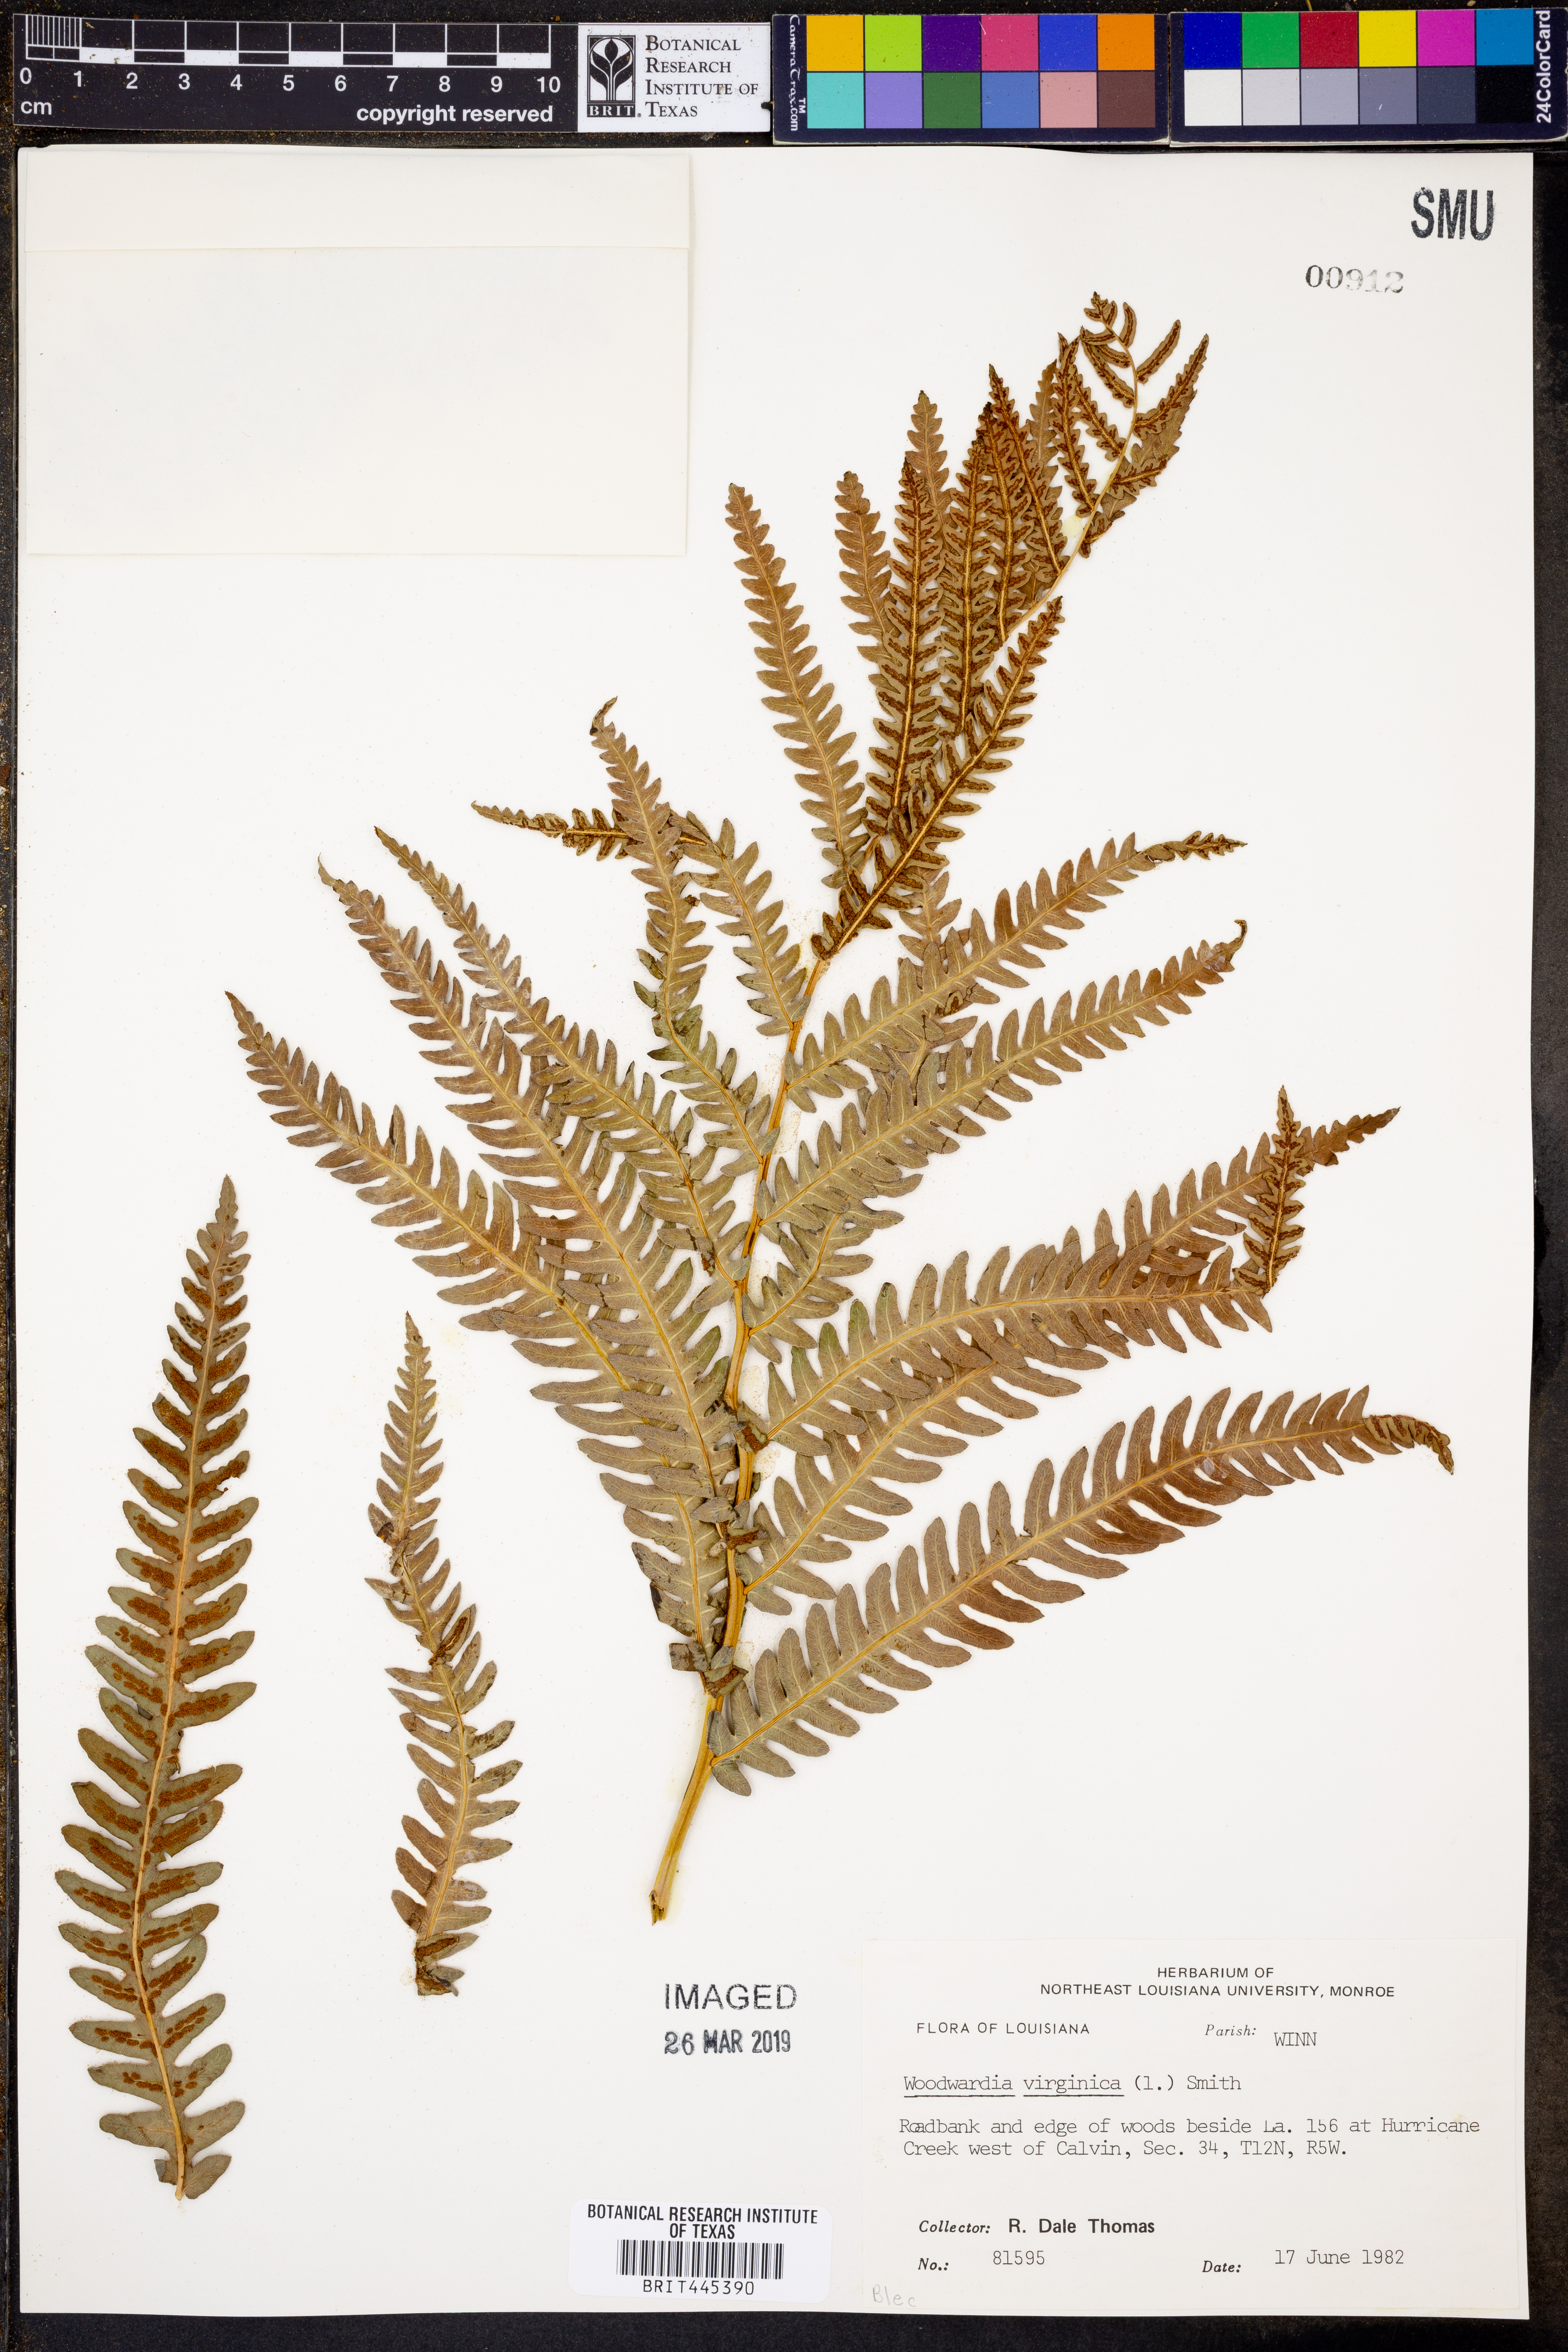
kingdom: Plantae
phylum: Tracheophyta
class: Polypodiopsida
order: Polypodiales
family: Blechnaceae
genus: Anchistea
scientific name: Anchistea virginica
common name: Virginia chain fern
